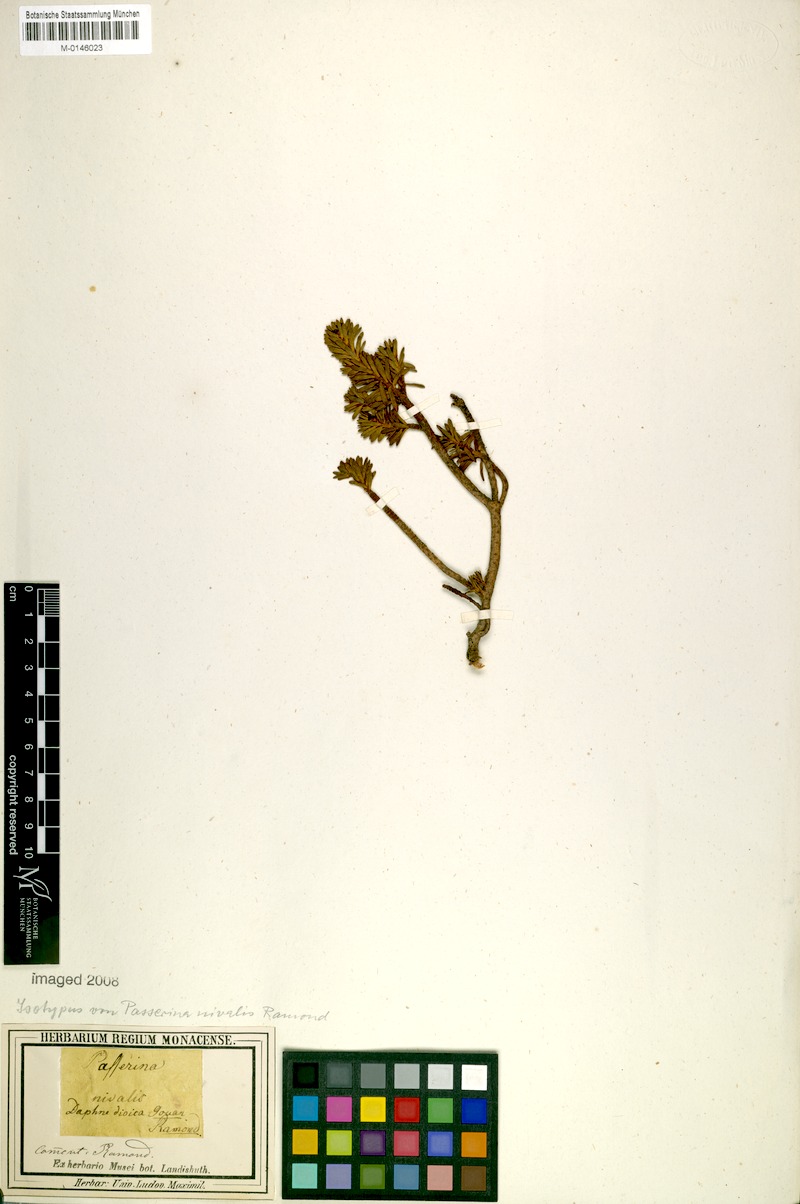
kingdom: Plantae
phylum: Tracheophyta
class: Magnoliopsida
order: Malvales
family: Thymelaeaceae
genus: Thymelaea
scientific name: Thymelaea tinctoria
